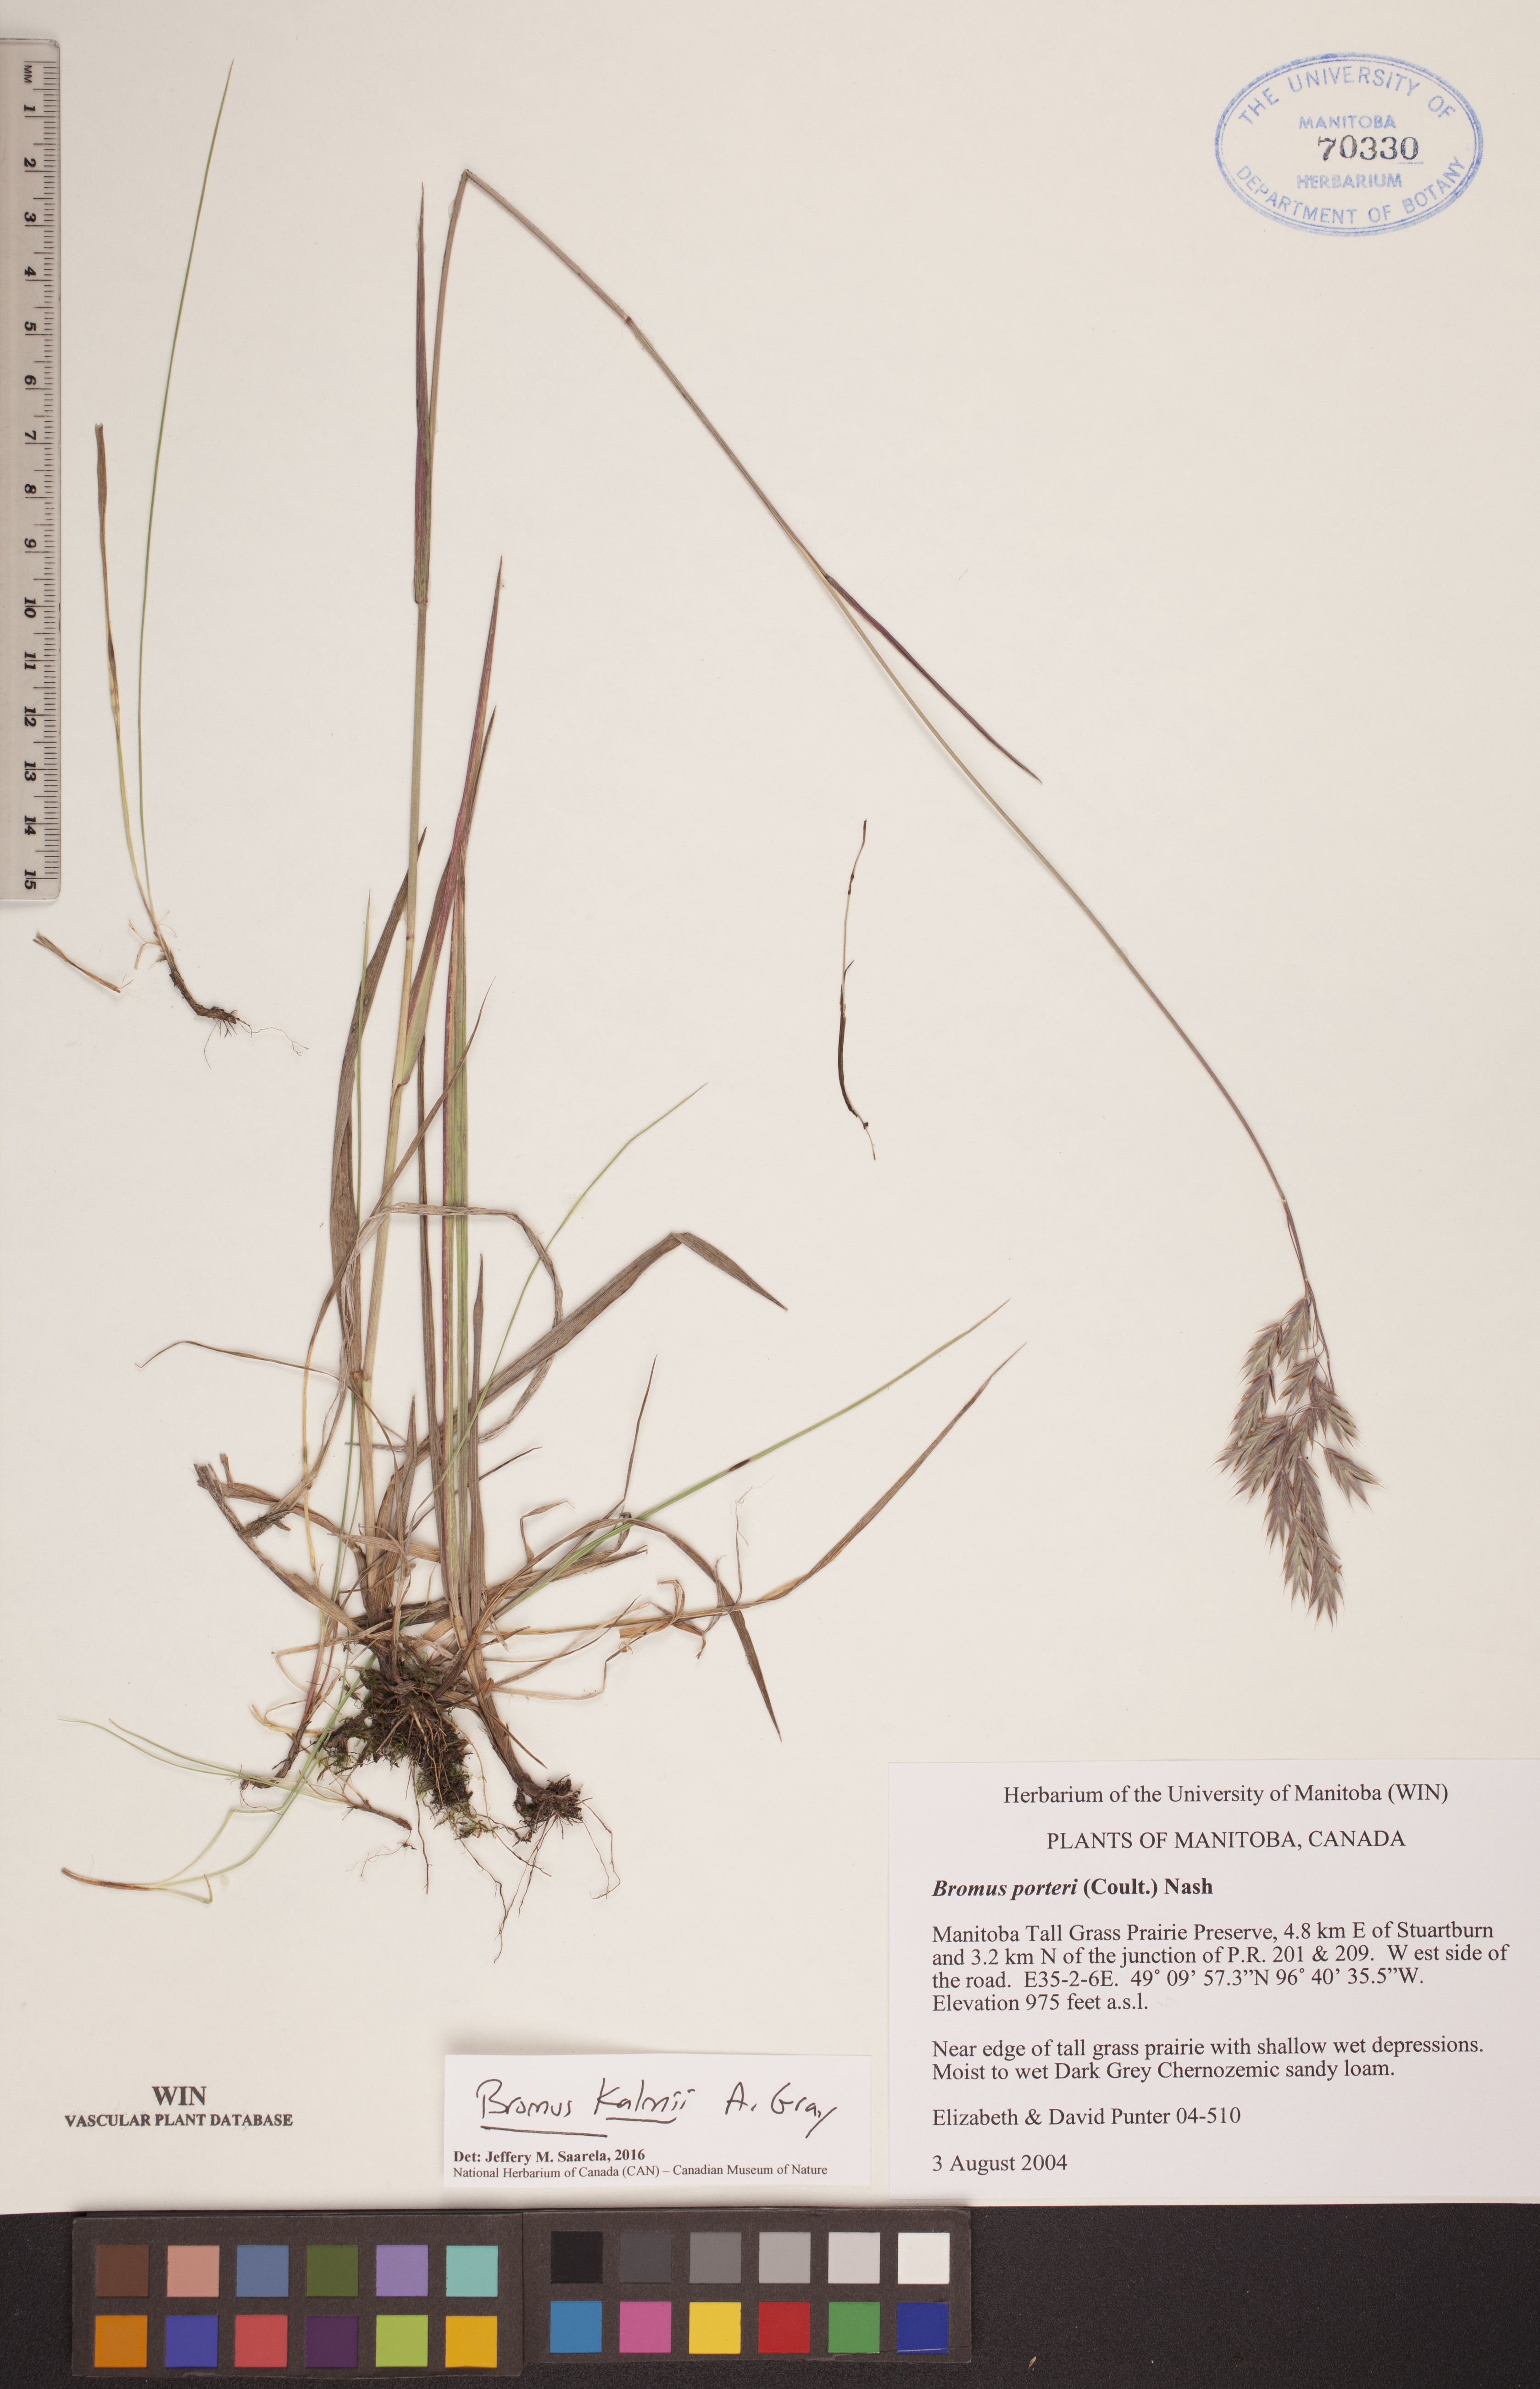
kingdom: Plantae
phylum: Tracheophyta
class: Liliopsida
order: Poales
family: Poaceae
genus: Bromus
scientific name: Bromus kalmii
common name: Kalm brome
